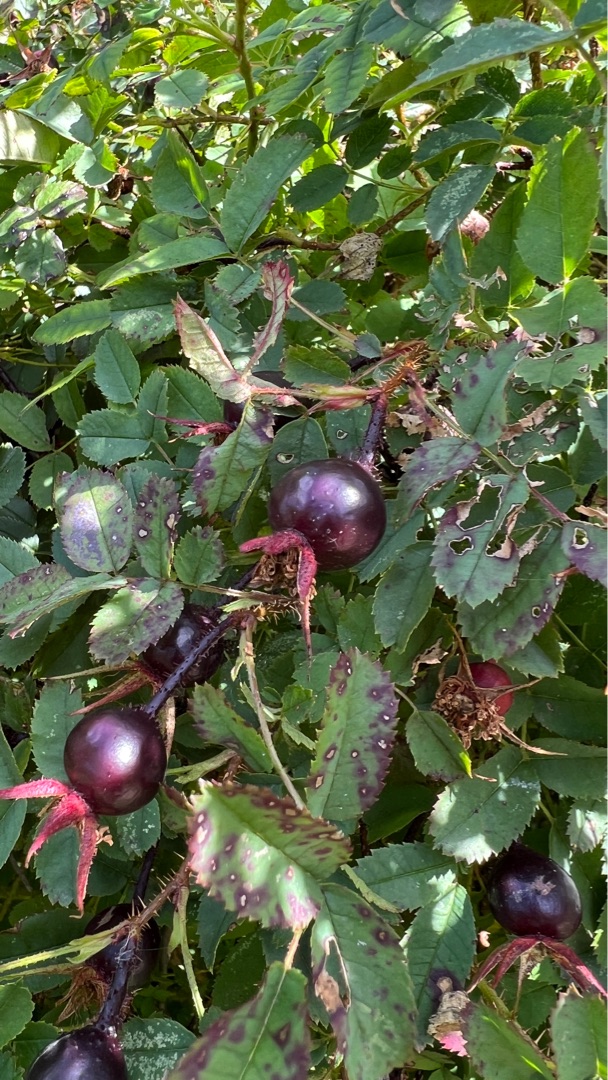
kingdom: Plantae
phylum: Tracheophyta
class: Magnoliopsida
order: Rosales
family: Rosaceae
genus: Rosa
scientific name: Rosa spinosissima
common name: Klit-rose
